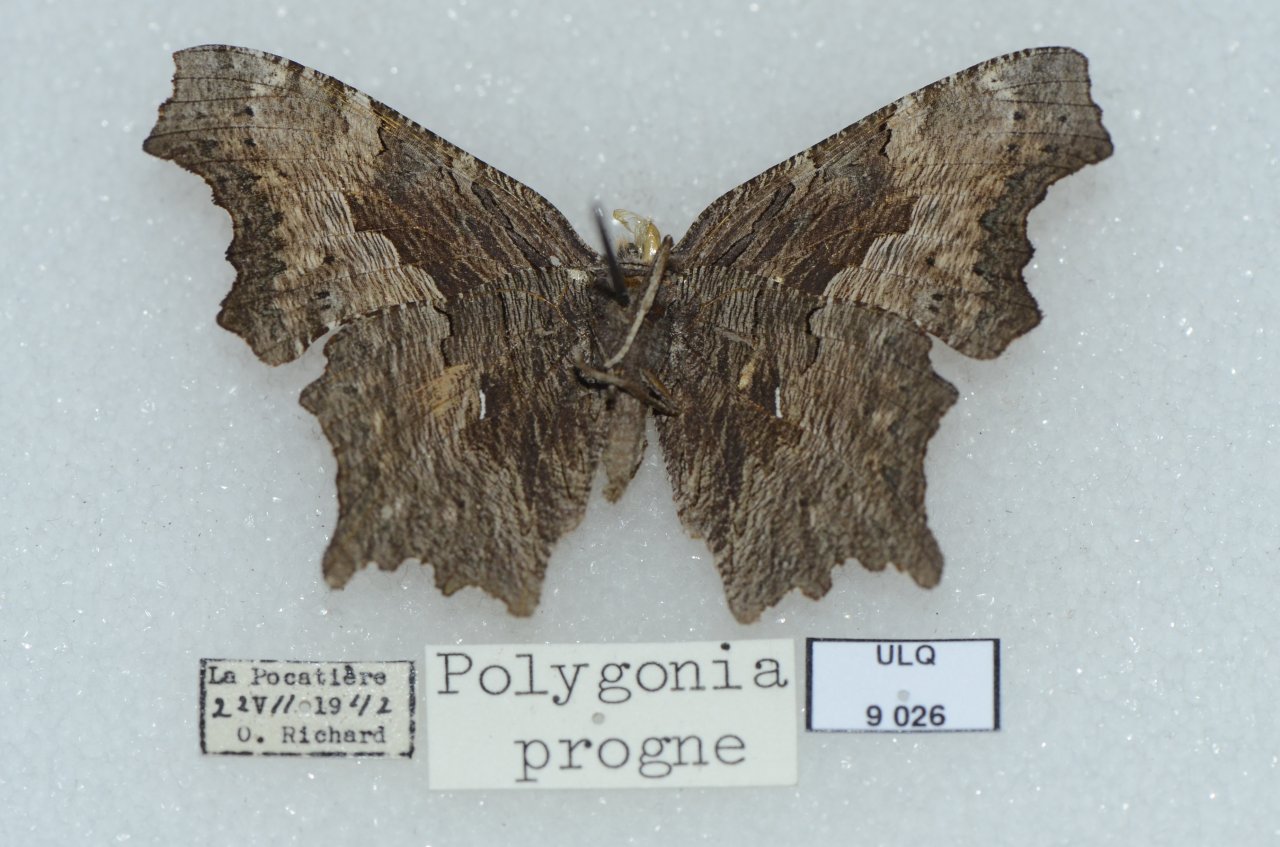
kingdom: Animalia
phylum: Arthropoda
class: Insecta
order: Lepidoptera
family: Nymphalidae
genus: Polygonia
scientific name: Polygonia progne
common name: Gray Comma
